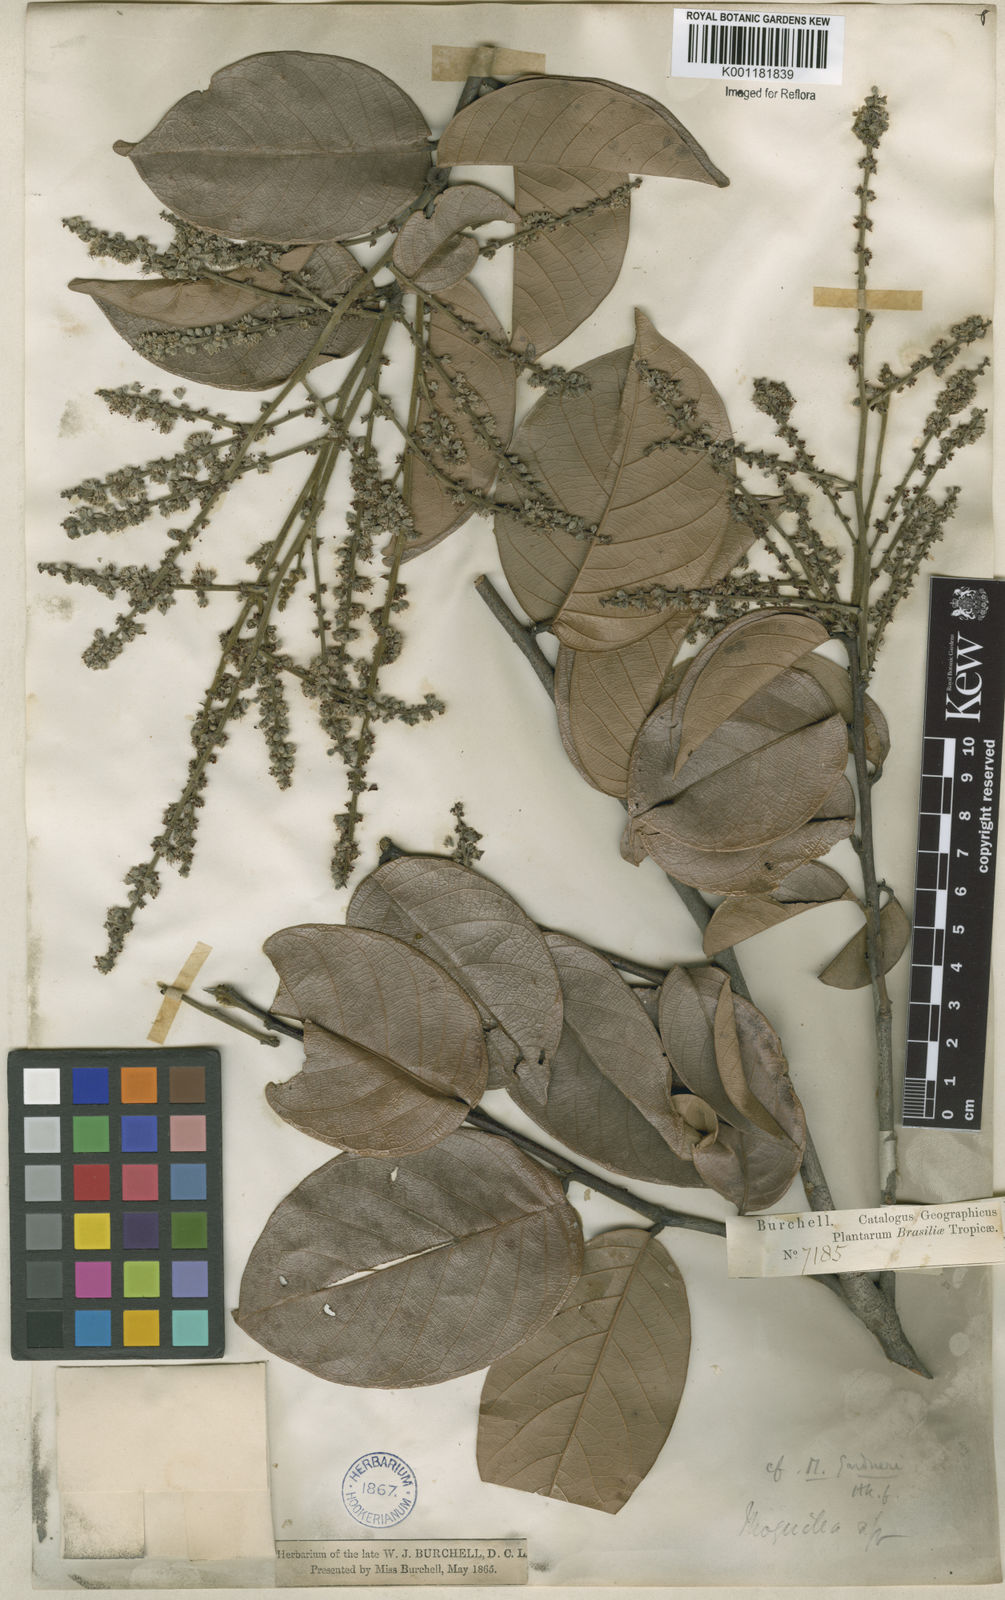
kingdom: Plantae
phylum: Tracheophyta
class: Magnoliopsida
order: Malpighiales
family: Chrysobalanaceae
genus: Leptobalanus
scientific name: Leptobalanus gardneri
